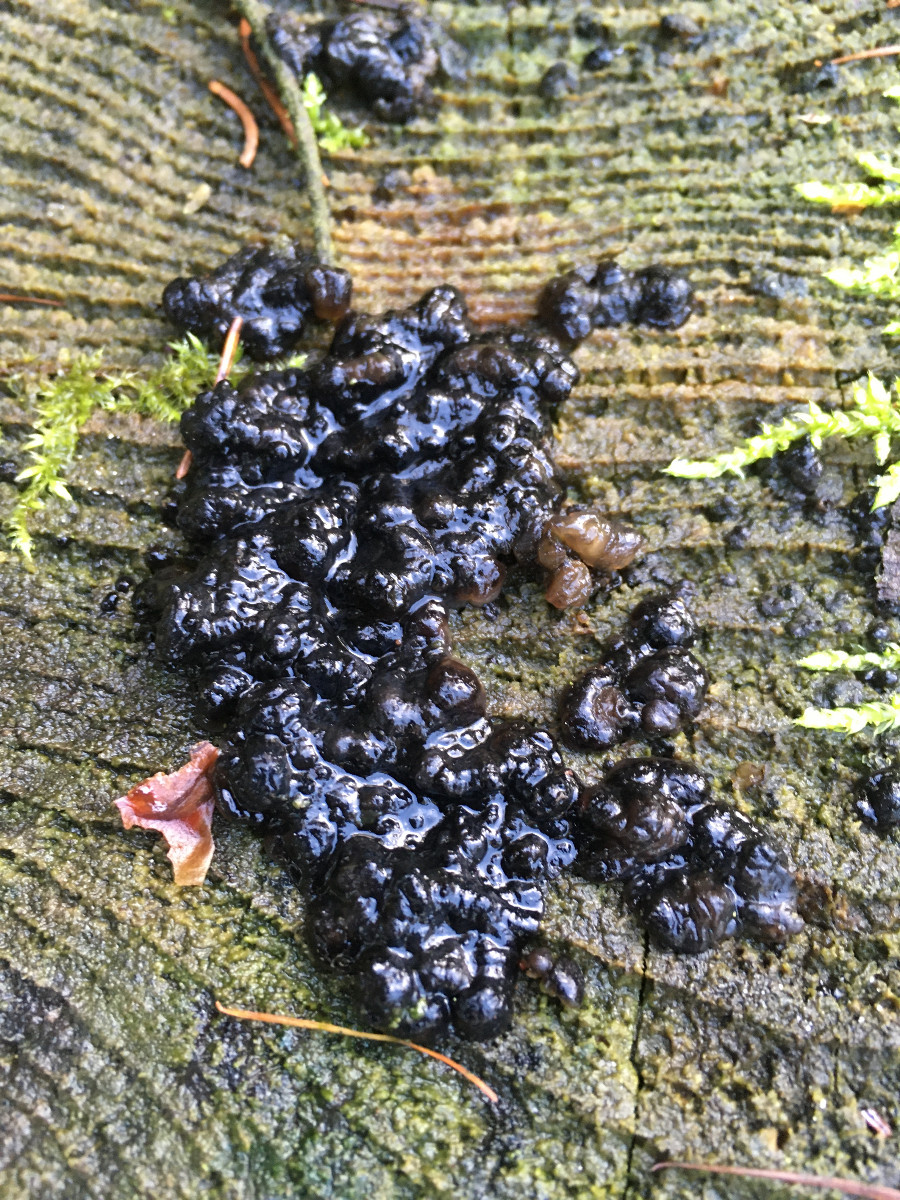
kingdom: Fungi
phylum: Basidiomycota
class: Agaricomycetes
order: Auriculariales
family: Auriculariaceae
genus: Exidia
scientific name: Exidia pithya
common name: gran-bævretop
